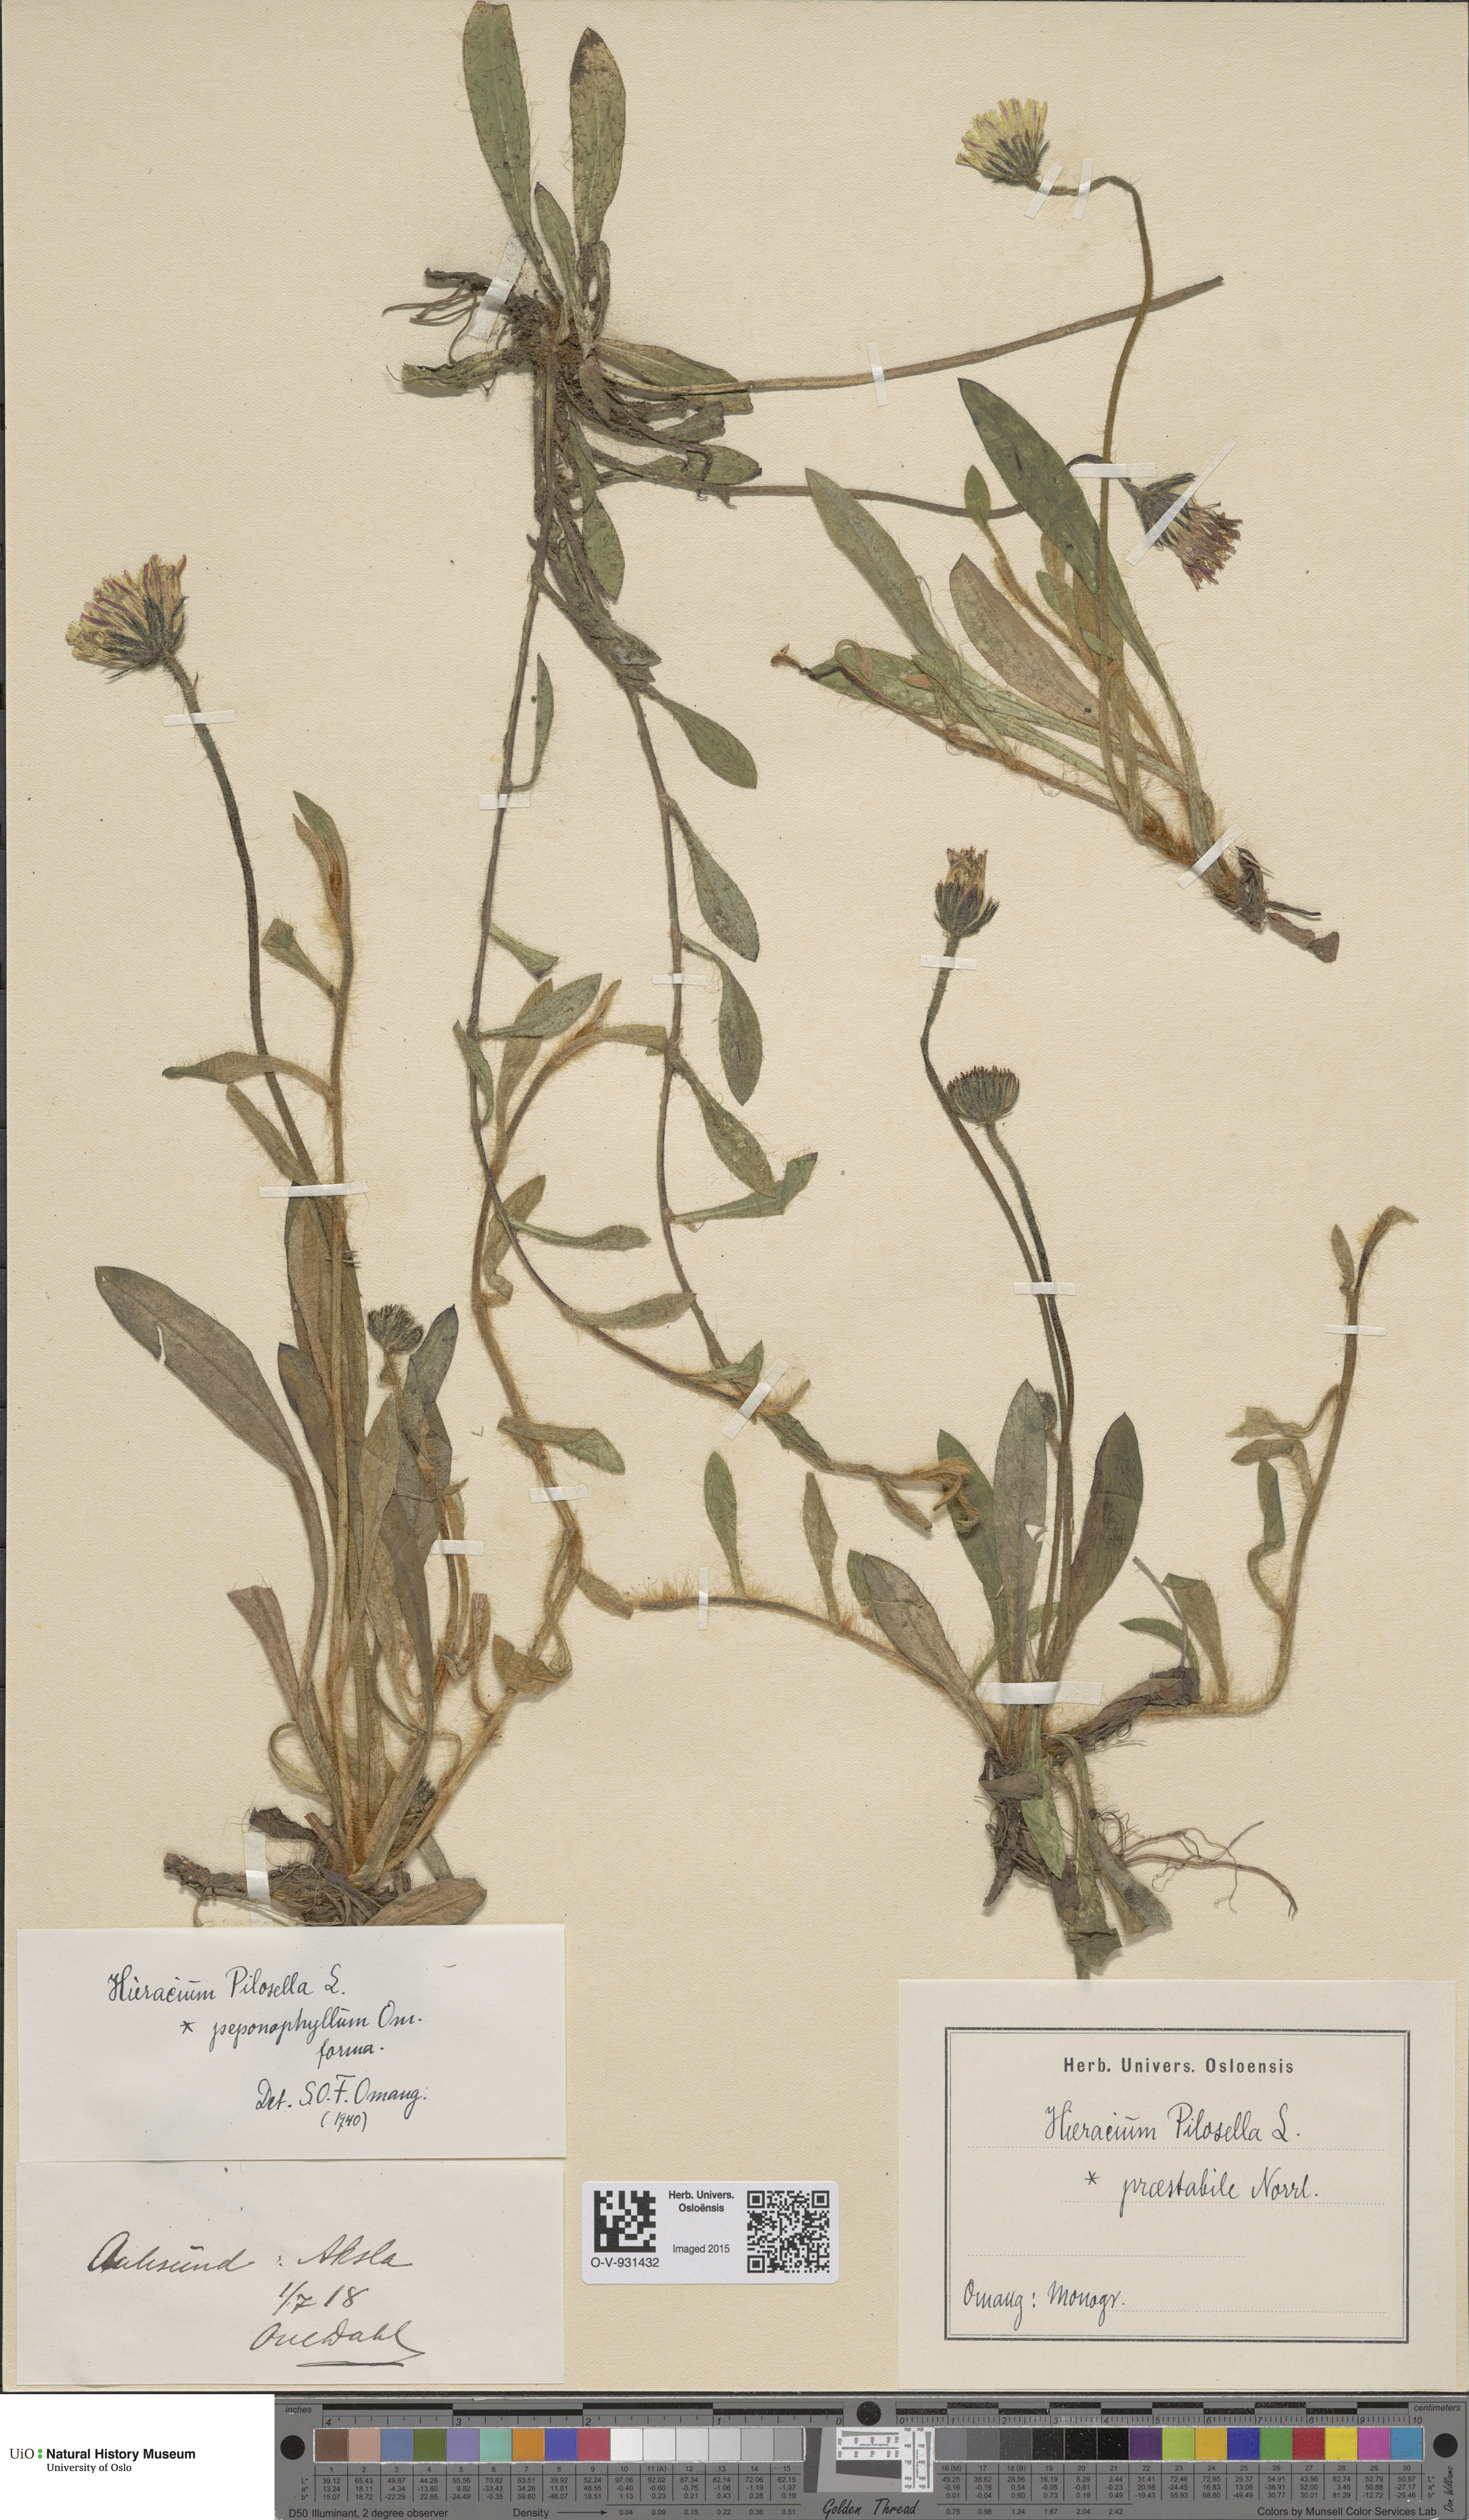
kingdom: Plantae
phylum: Tracheophyta
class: Magnoliopsida
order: Asterales
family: Asteraceae
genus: Pilosella
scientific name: Pilosella officinarum
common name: Mouse-ear hawkweed
